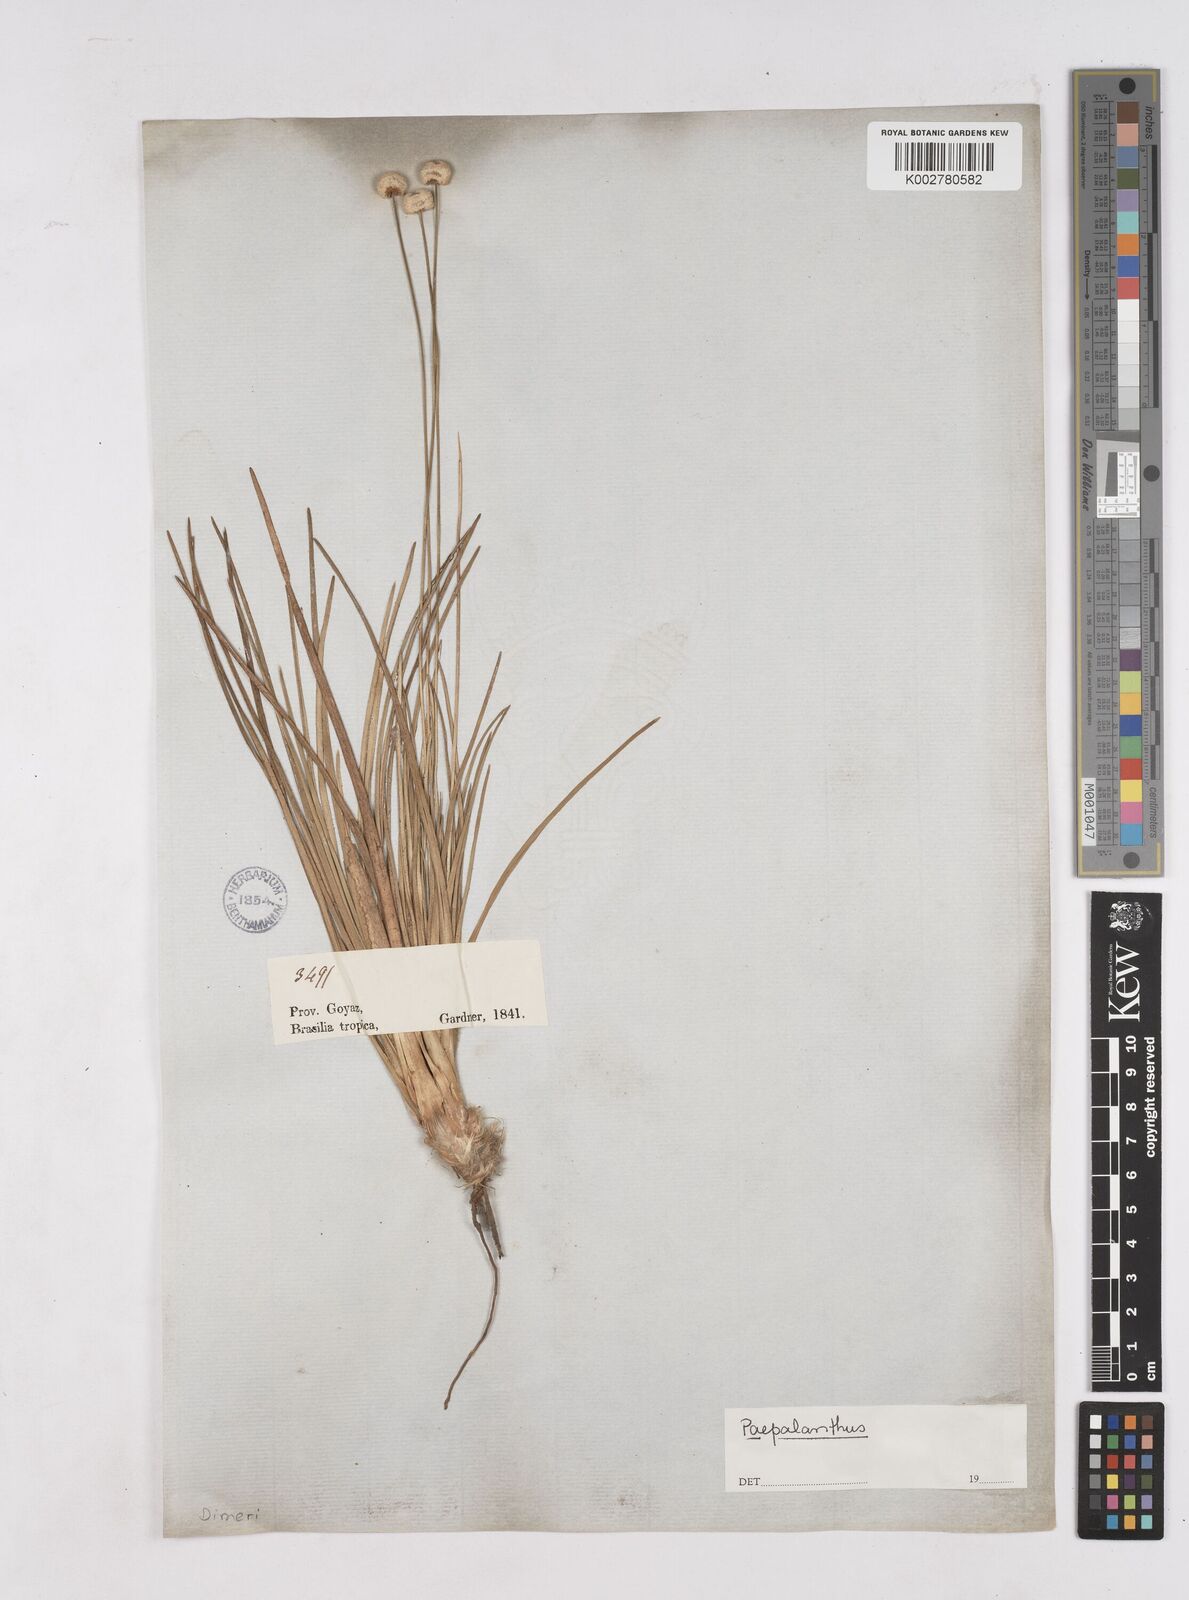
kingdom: Plantae
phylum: Tracheophyta
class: Liliopsida
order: Poales
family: Eriocaulaceae
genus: Paepalanthus
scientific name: Paepalanthus
